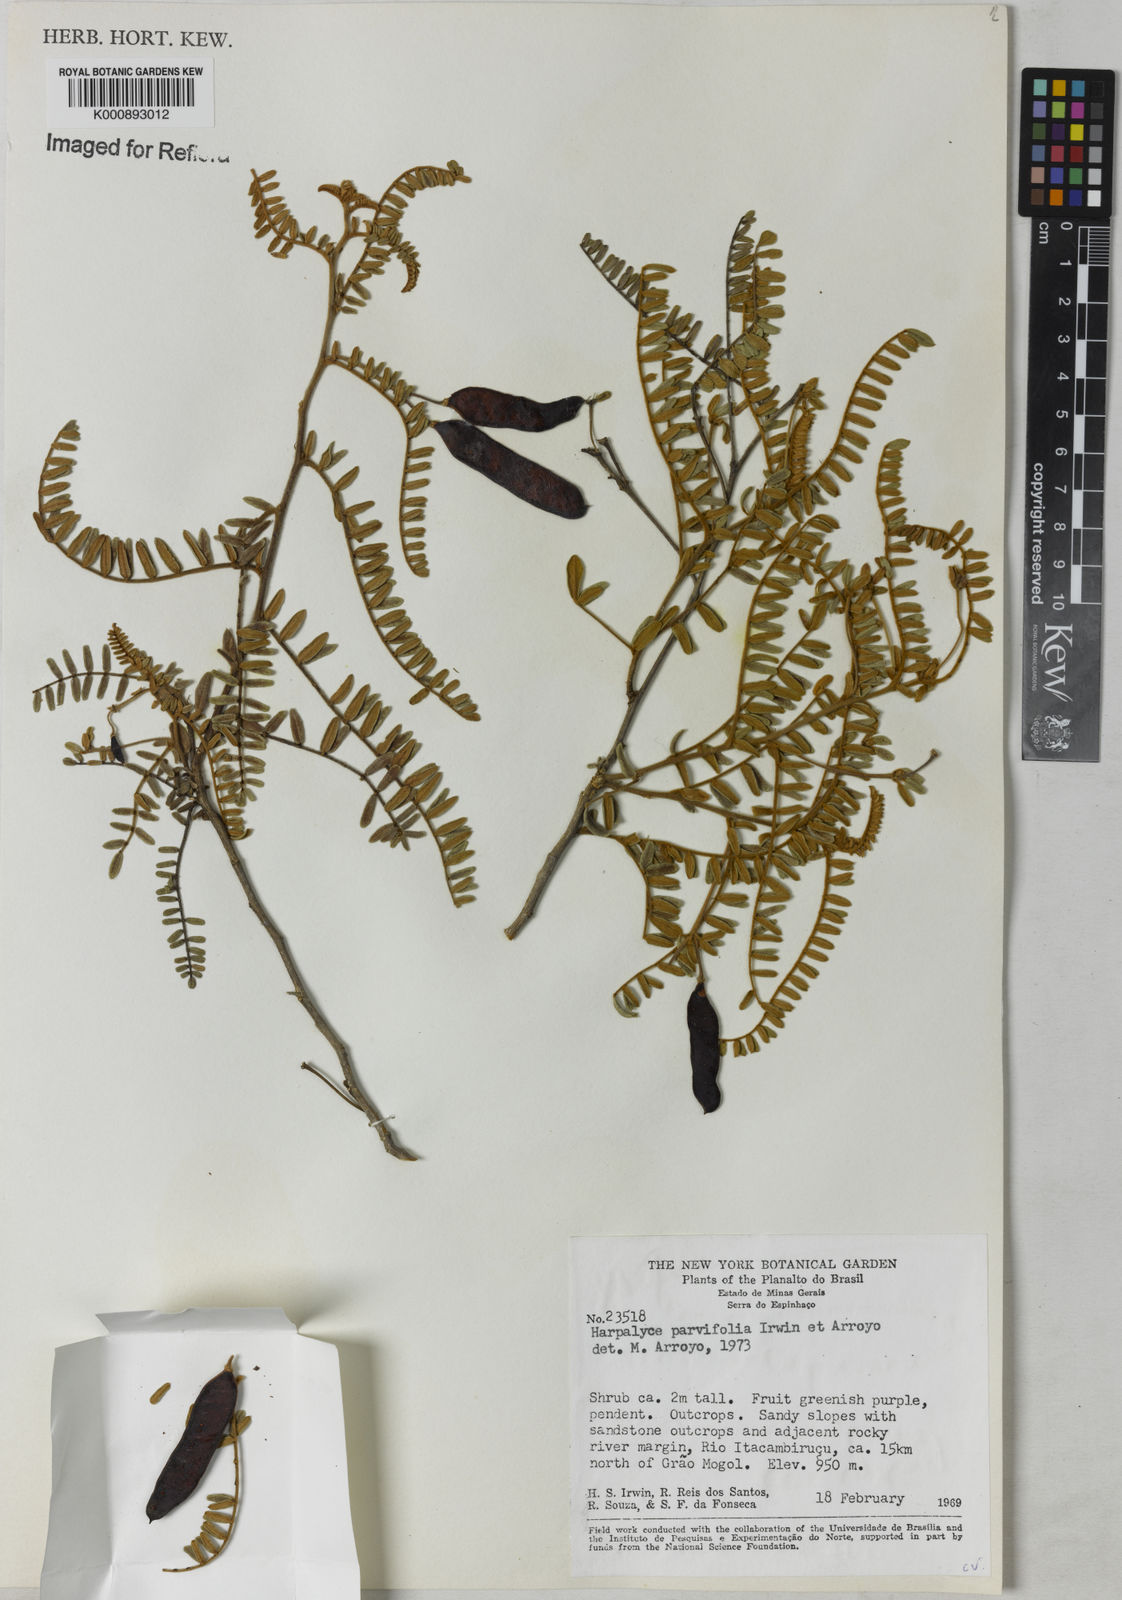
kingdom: Plantae
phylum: Tracheophyta
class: Magnoliopsida
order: Fabales
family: Fabaceae
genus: Harpalyce
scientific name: Harpalyce parvifolia
